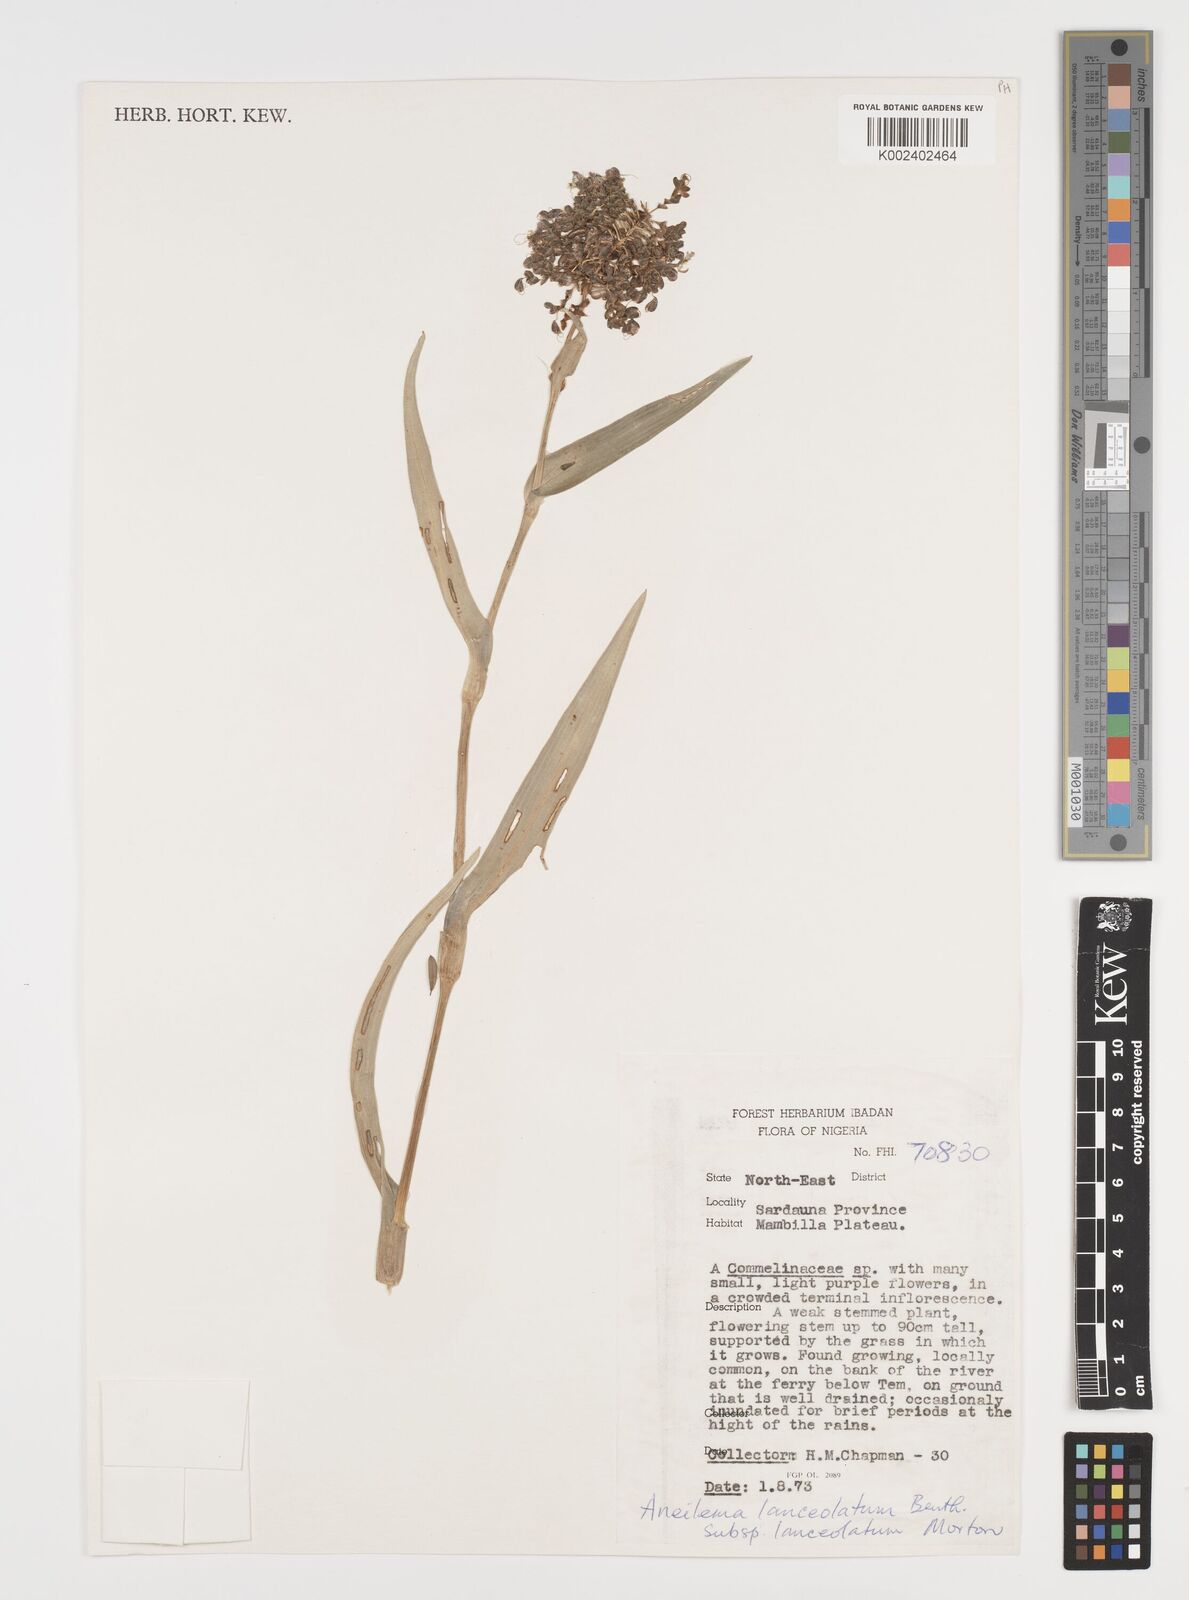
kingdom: Plantae
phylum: Tracheophyta
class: Liliopsida
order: Commelinales
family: Commelinaceae
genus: Murdannia
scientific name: Murdannia spirata
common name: Asiatic dewflower
